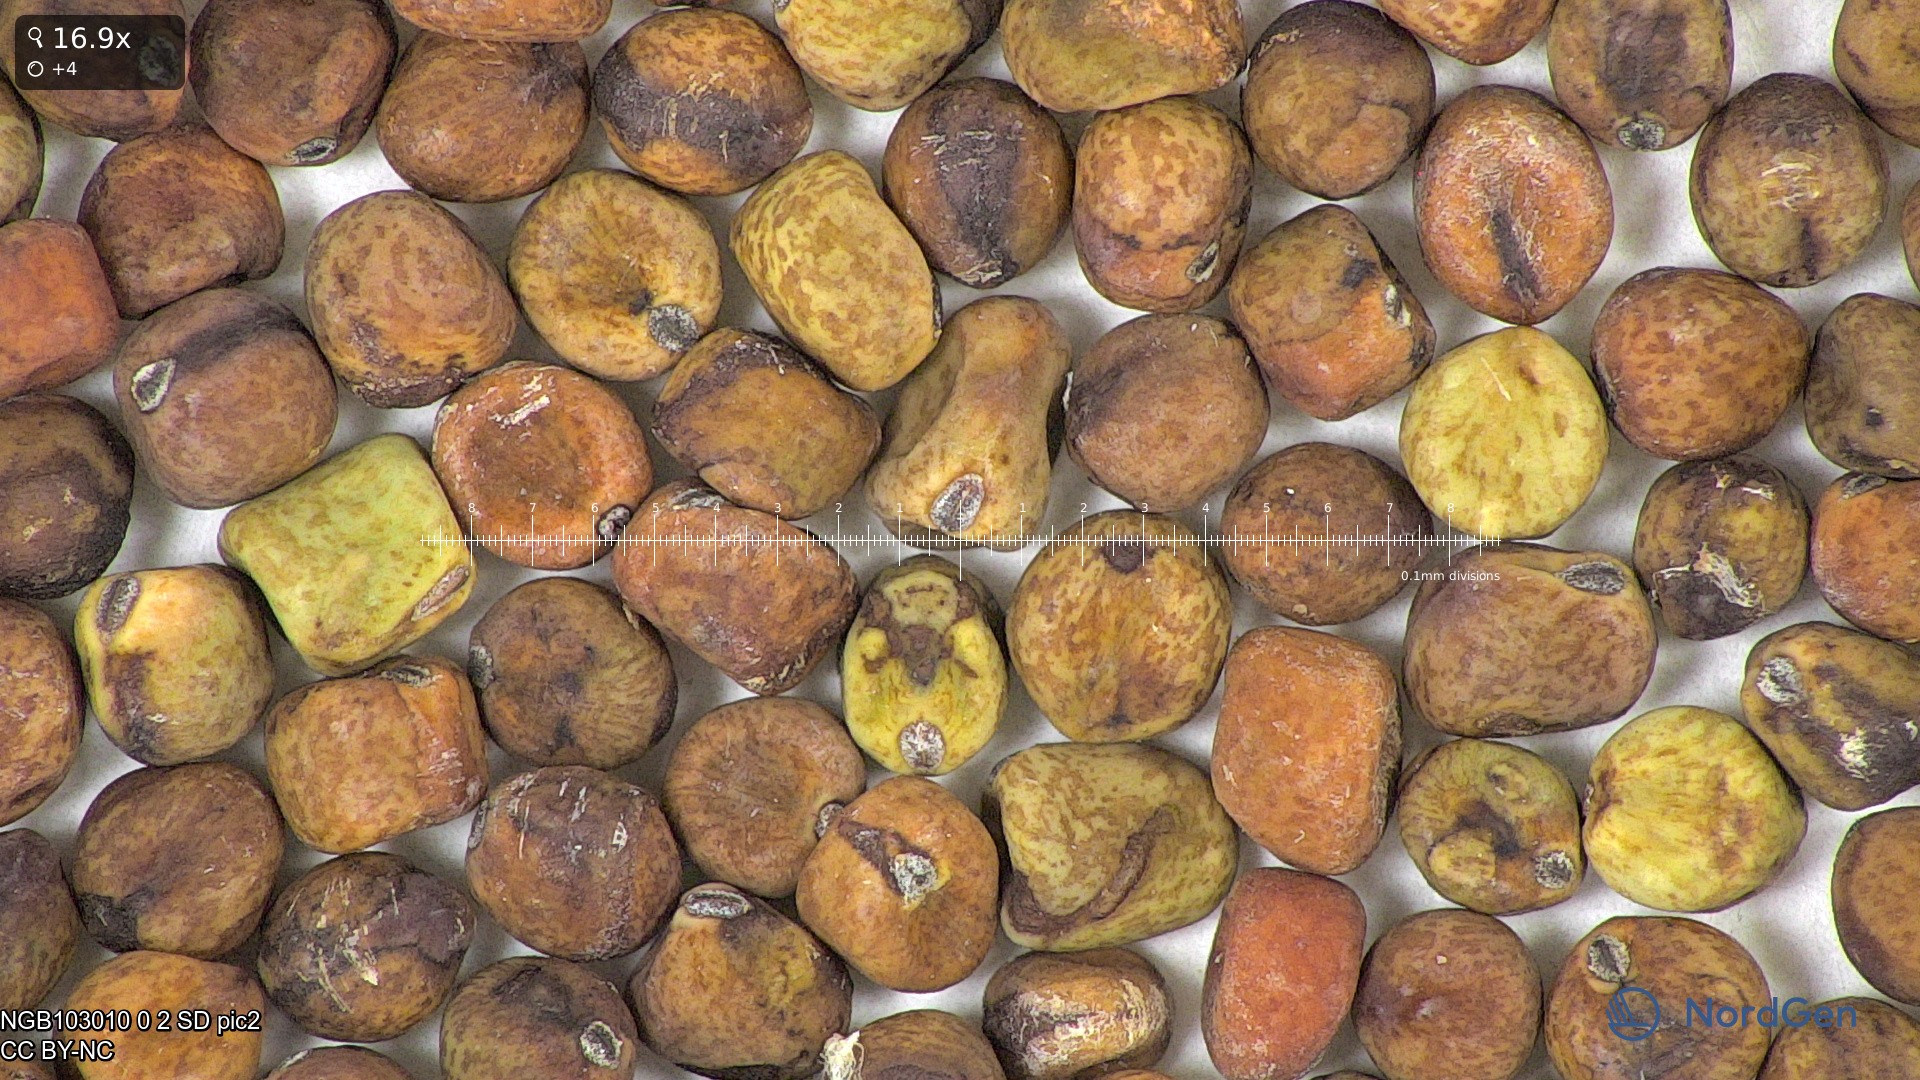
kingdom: Plantae
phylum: Tracheophyta
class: Magnoliopsida
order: Fabales
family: Fabaceae
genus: Lathyrus
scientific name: Lathyrus oleraceus
